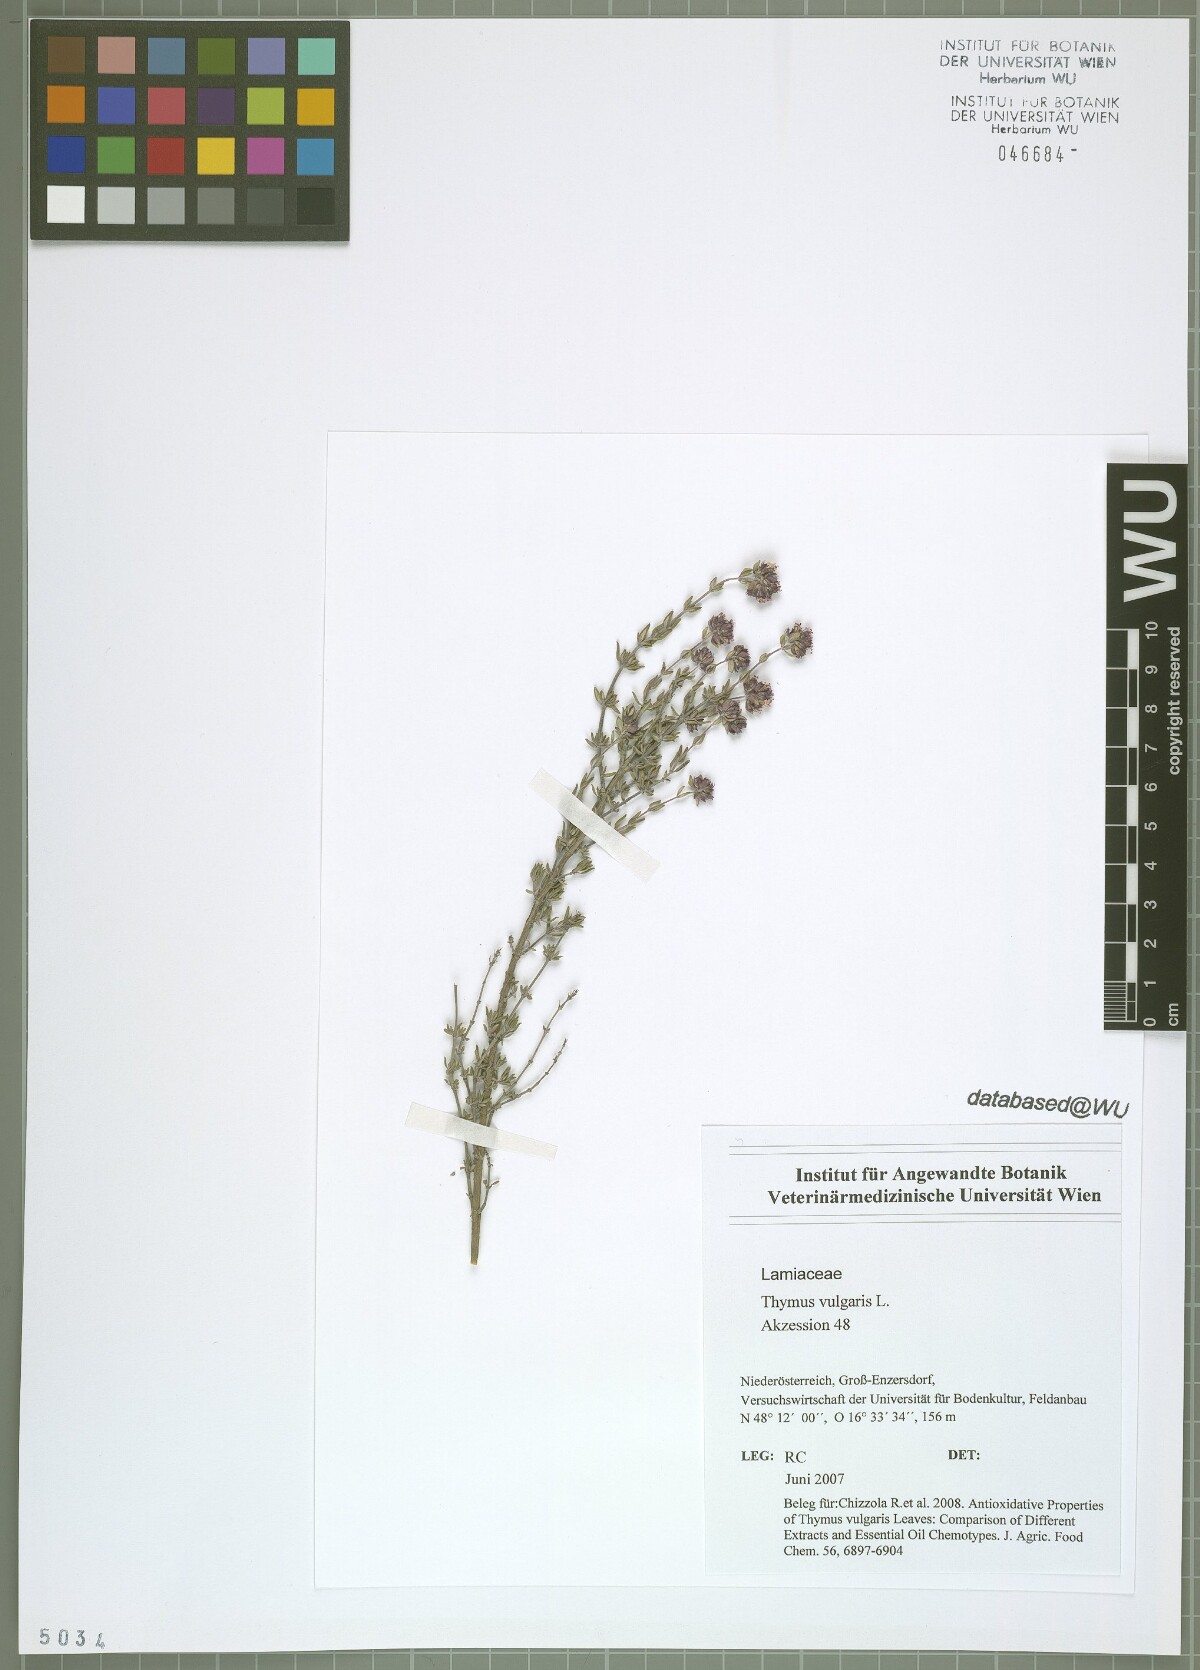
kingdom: Plantae
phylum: Tracheophyta
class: Magnoliopsida
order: Lamiales
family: Lamiaceae
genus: Thymus
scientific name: Thymus vulgaris
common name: Garden thyme
